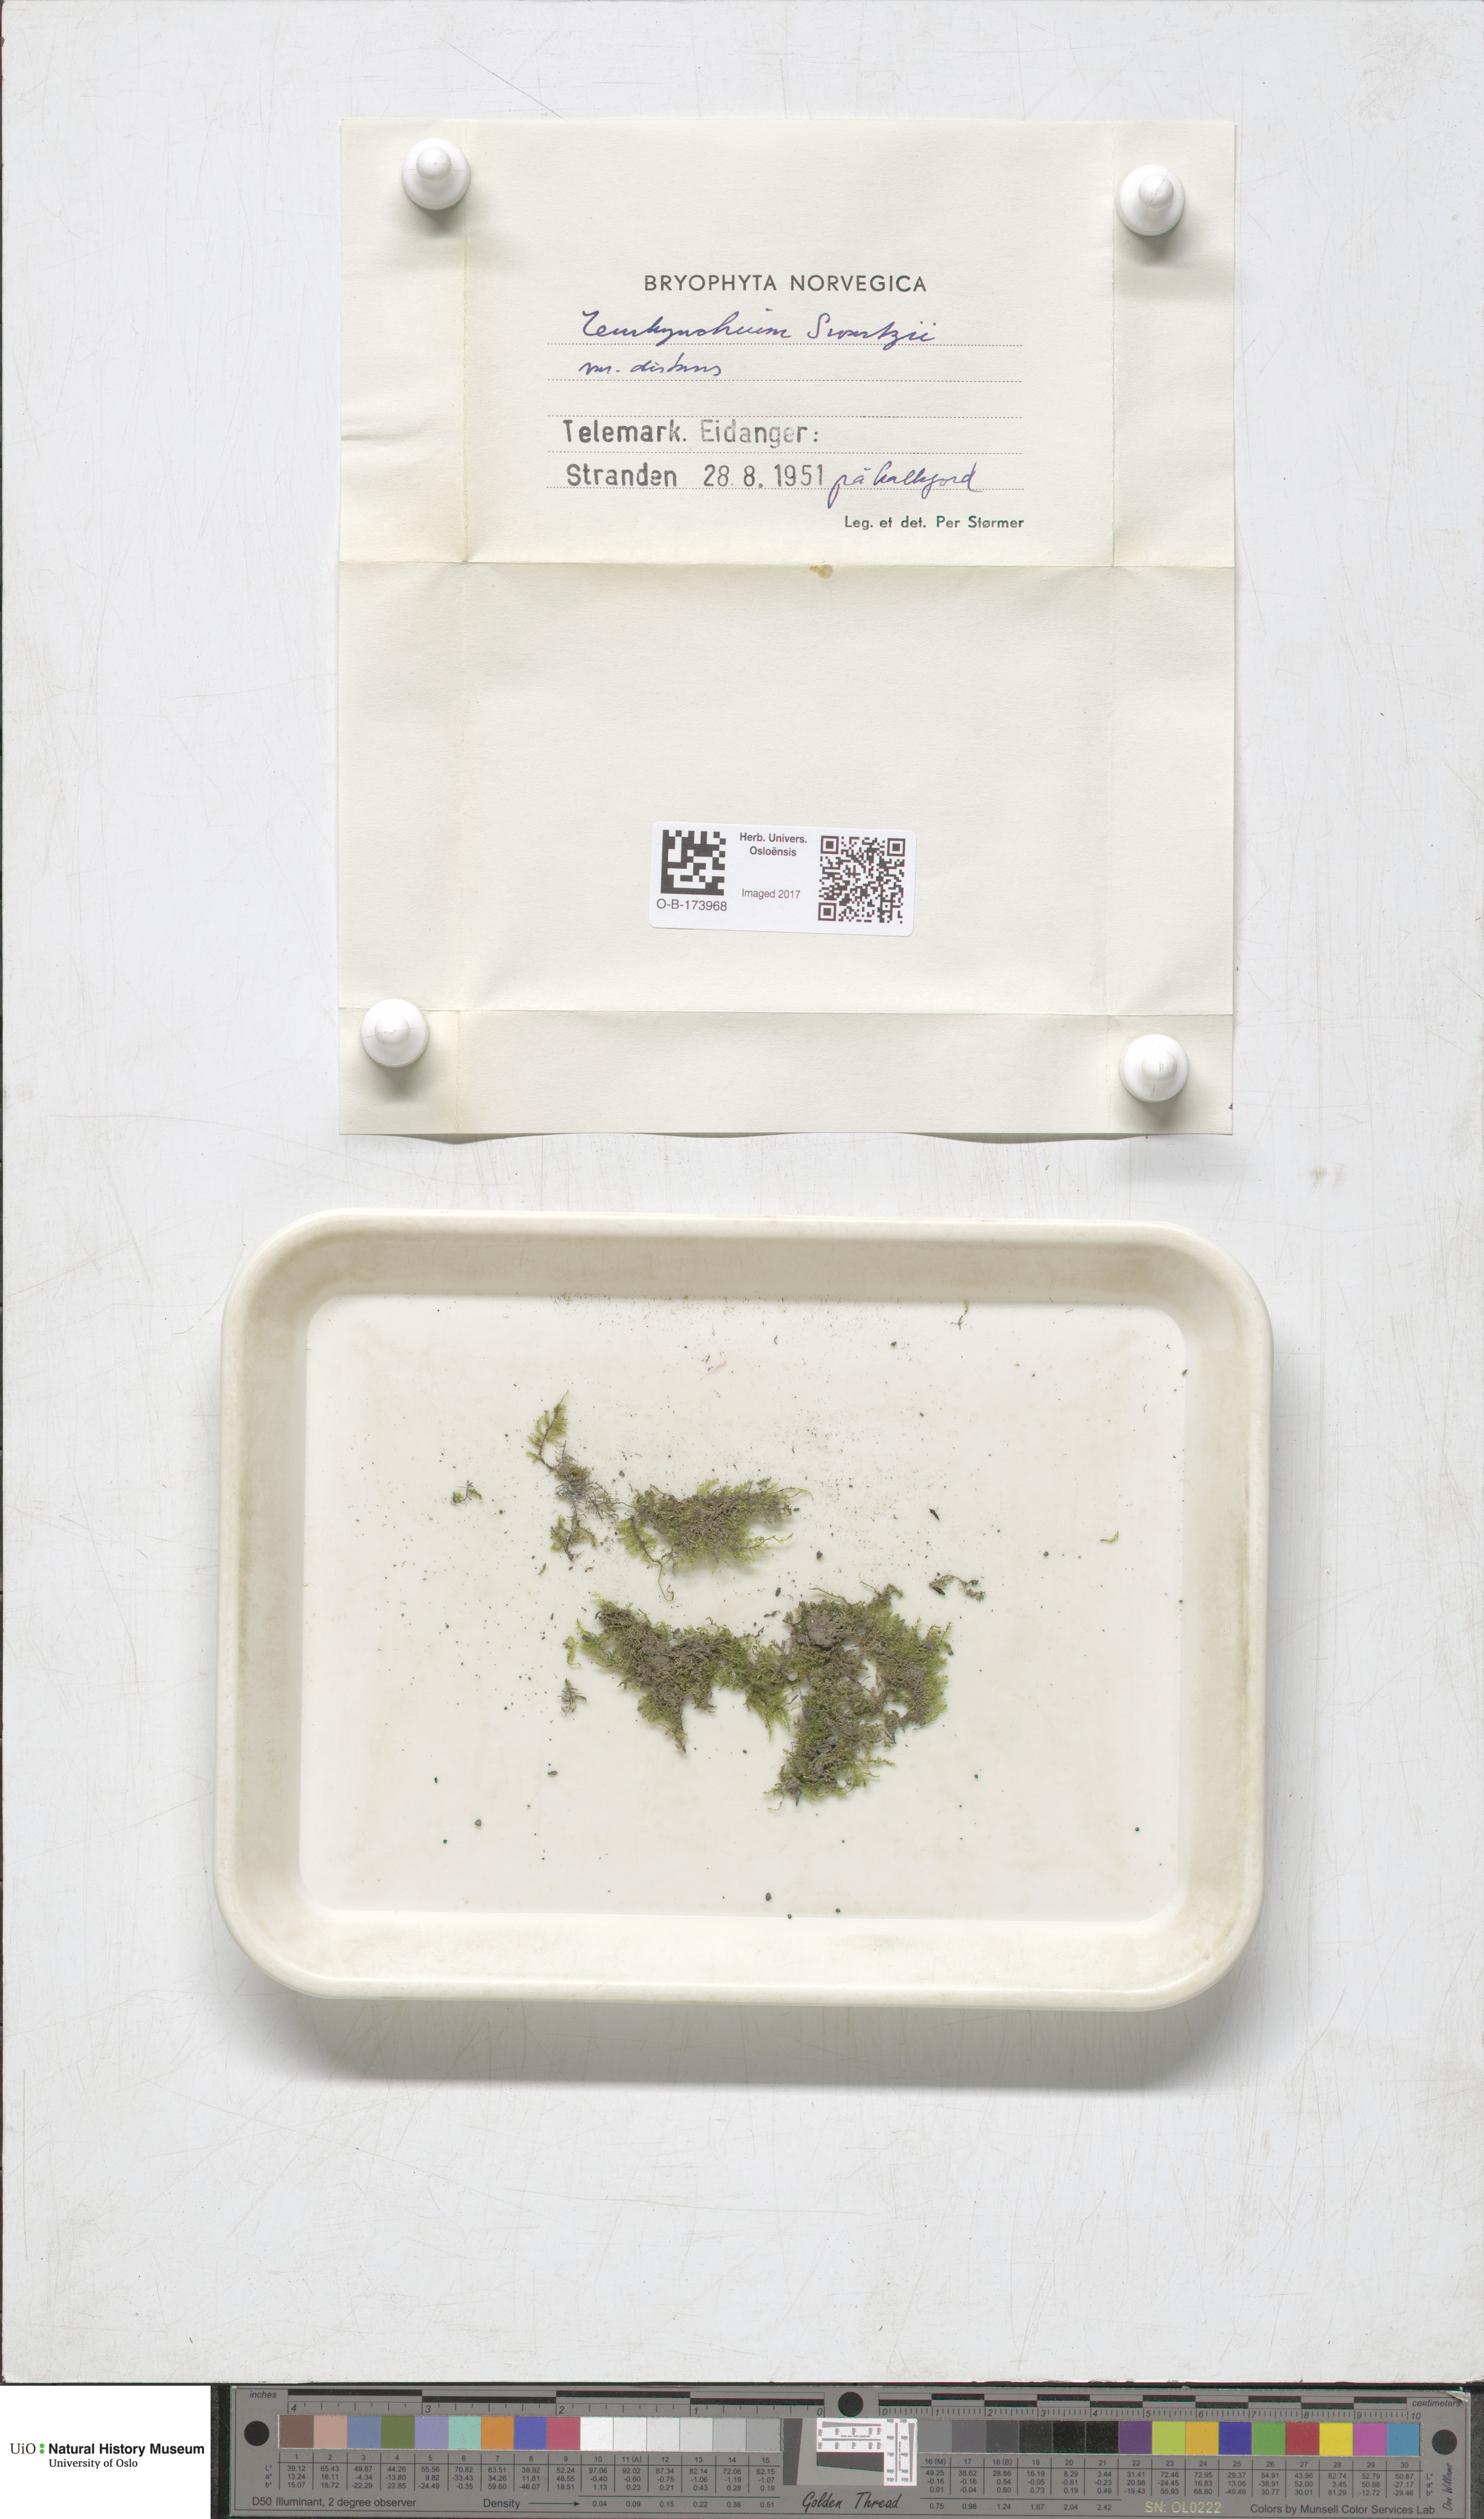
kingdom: Plantae
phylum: Bryophyta
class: Bryopsida
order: Hypnales
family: Brachytheciaceae
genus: Oxyrrhynchium
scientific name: Oxyrrhynchium hians
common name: Spreading beaked moss
